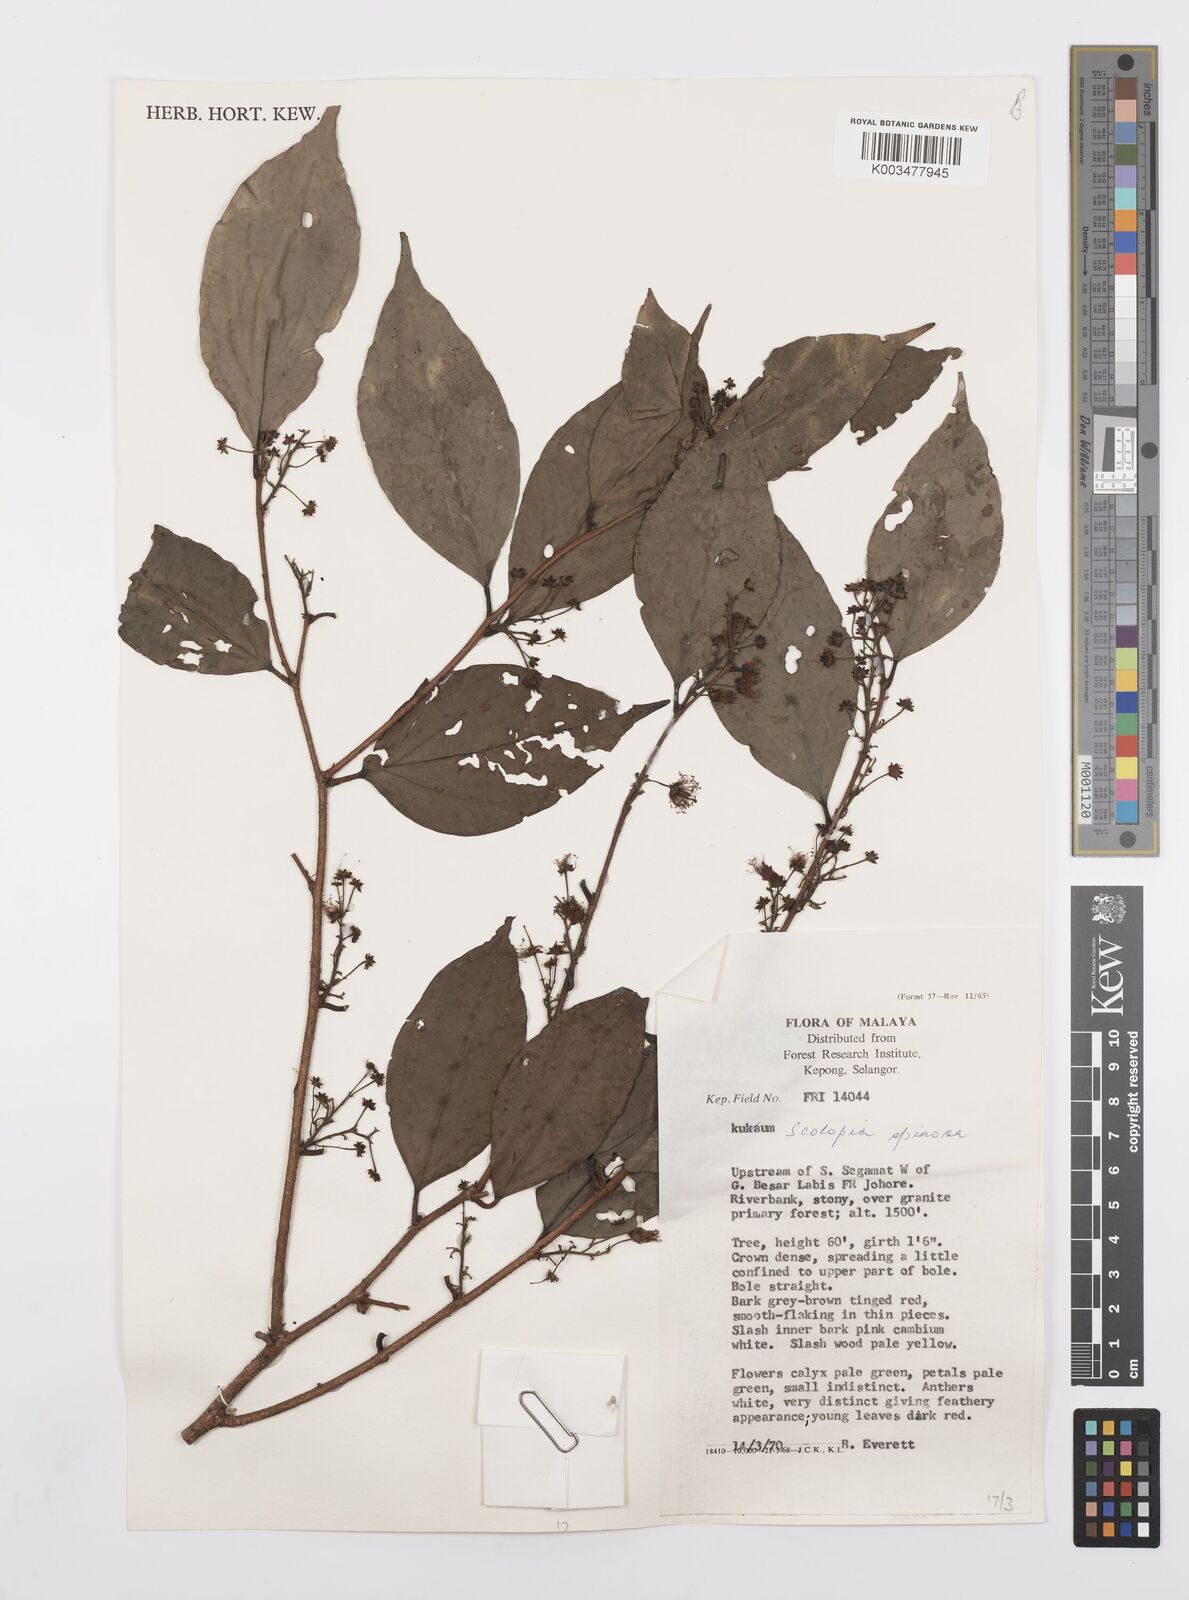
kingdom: Plantae
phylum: Tracheophyta
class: Magnoliopsida
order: Malpighiales
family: Salicaceae
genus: Scolopia
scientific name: Scolopia spinosa
